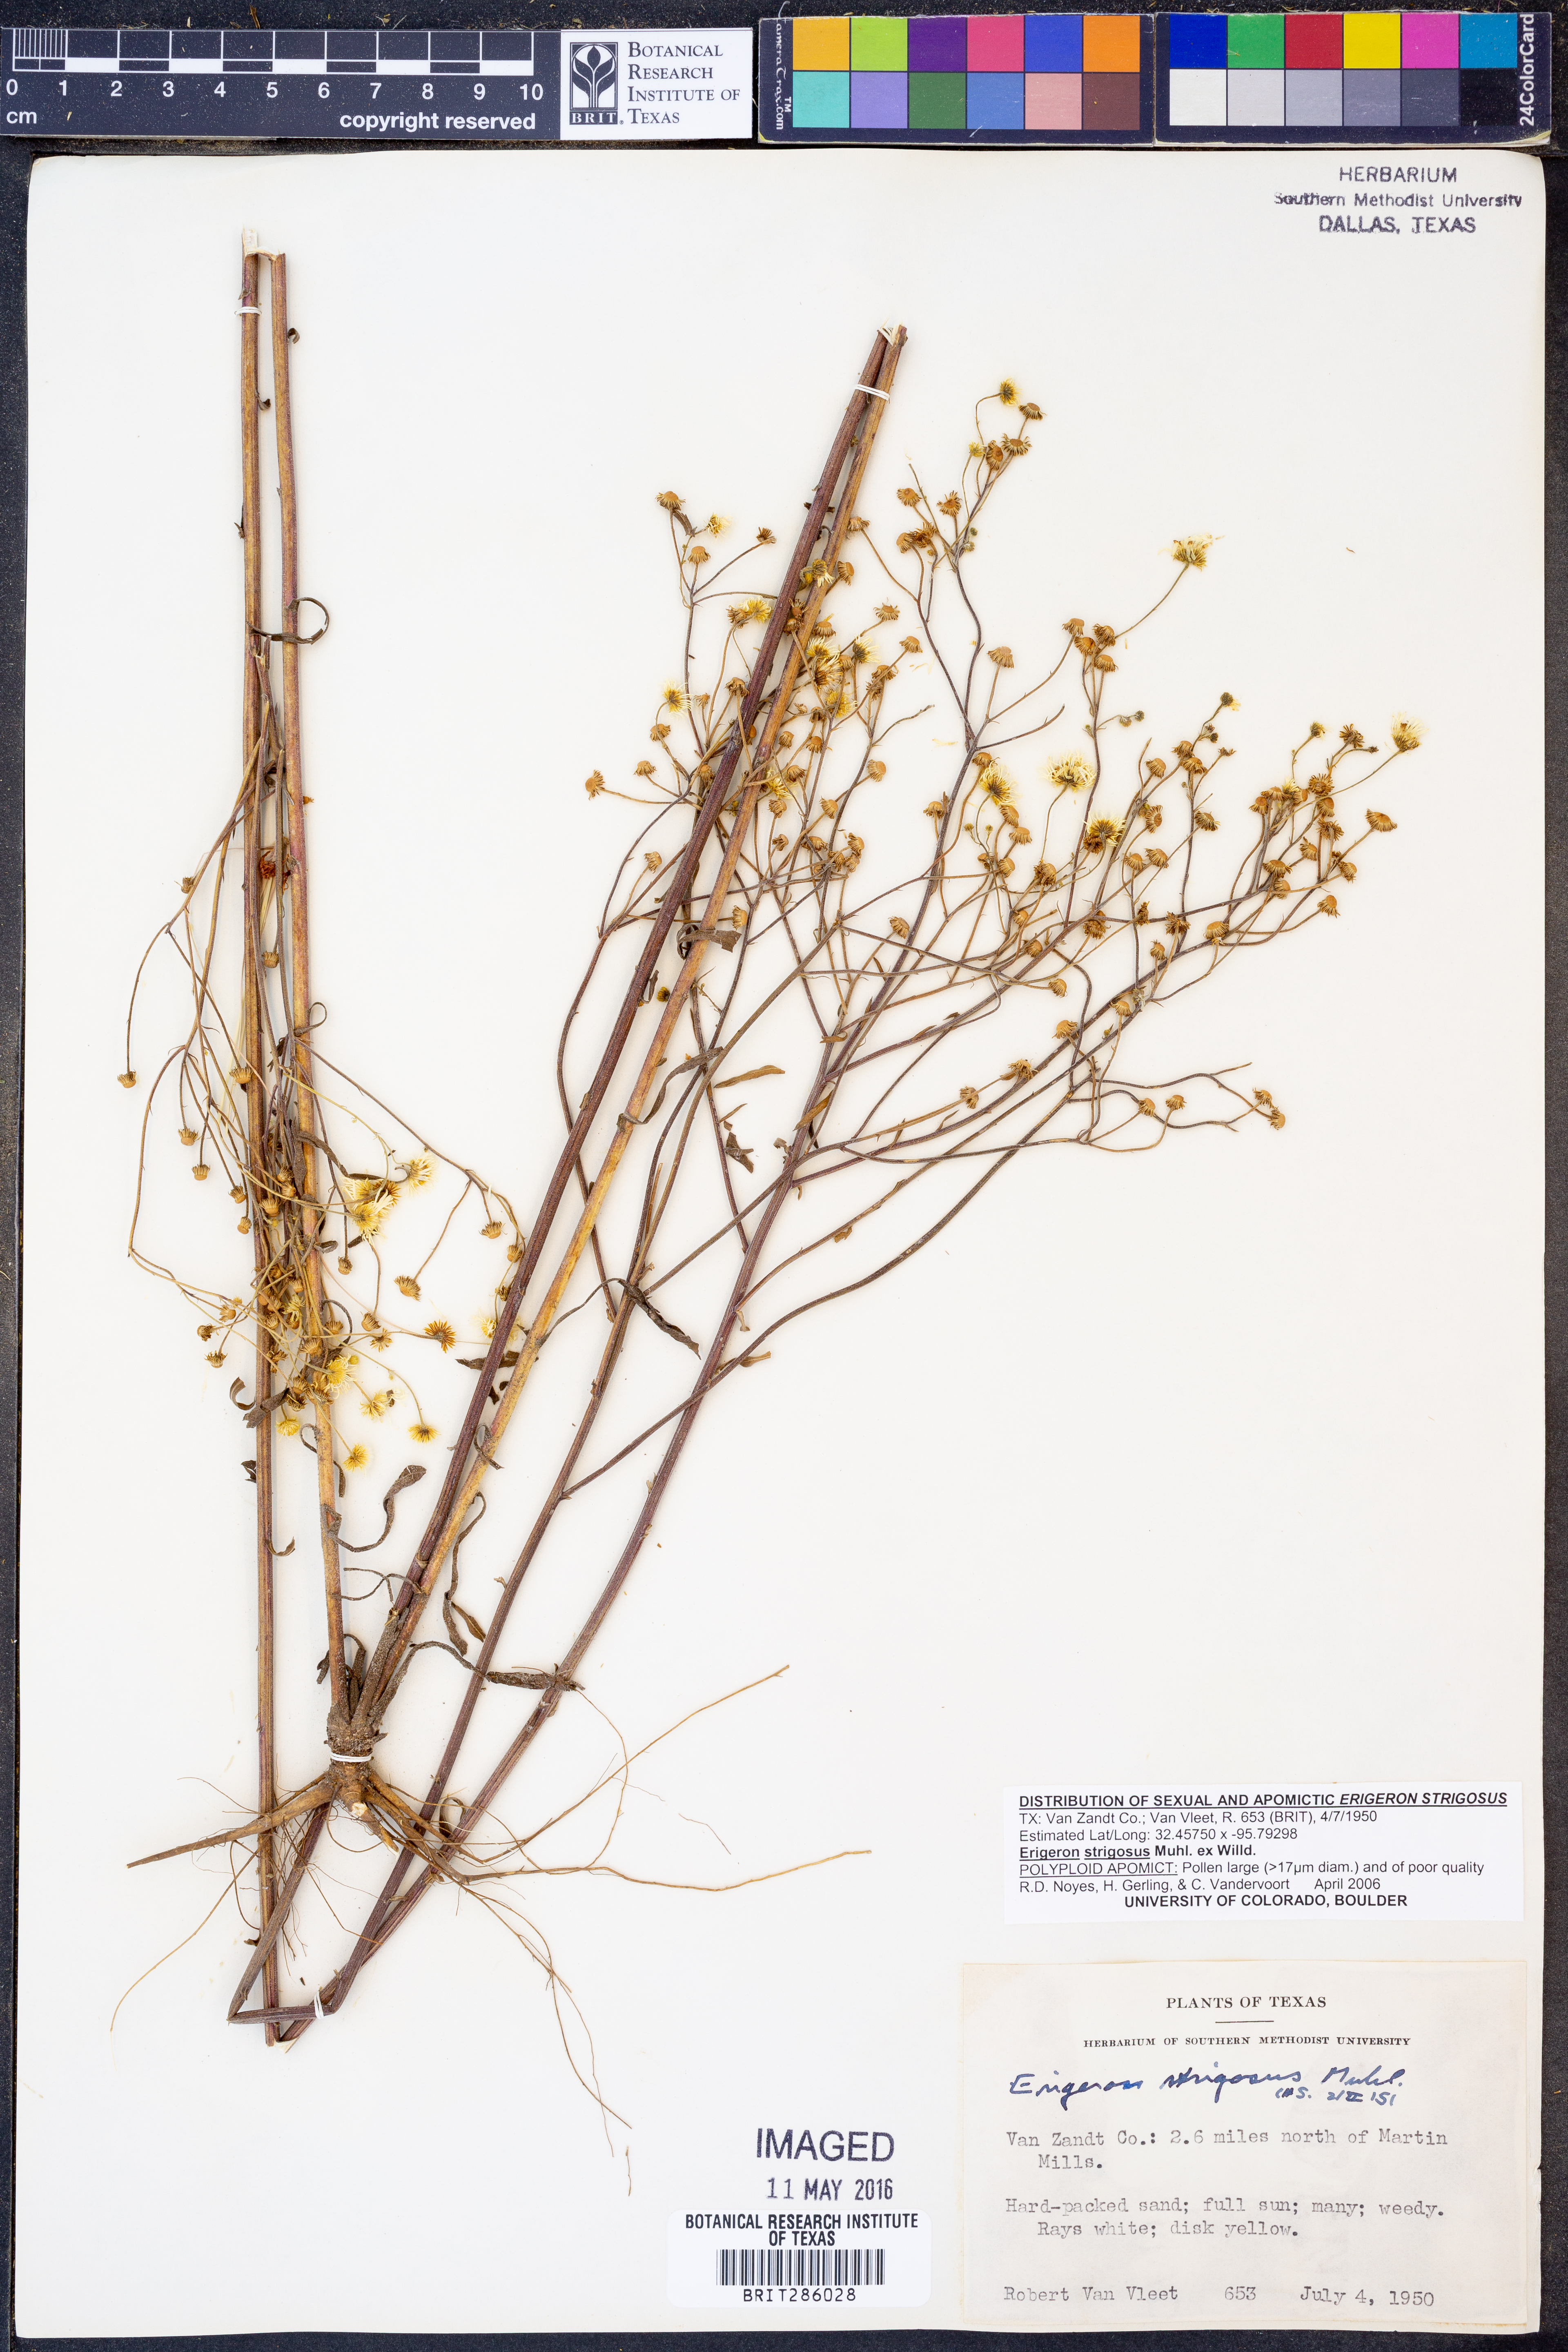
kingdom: Plantae
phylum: Tracheophyta
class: Magnoliopsida
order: Asterales
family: Asteraceae
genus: Erigeron
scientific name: Erigeron strigosus
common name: Common eastern fleabane
